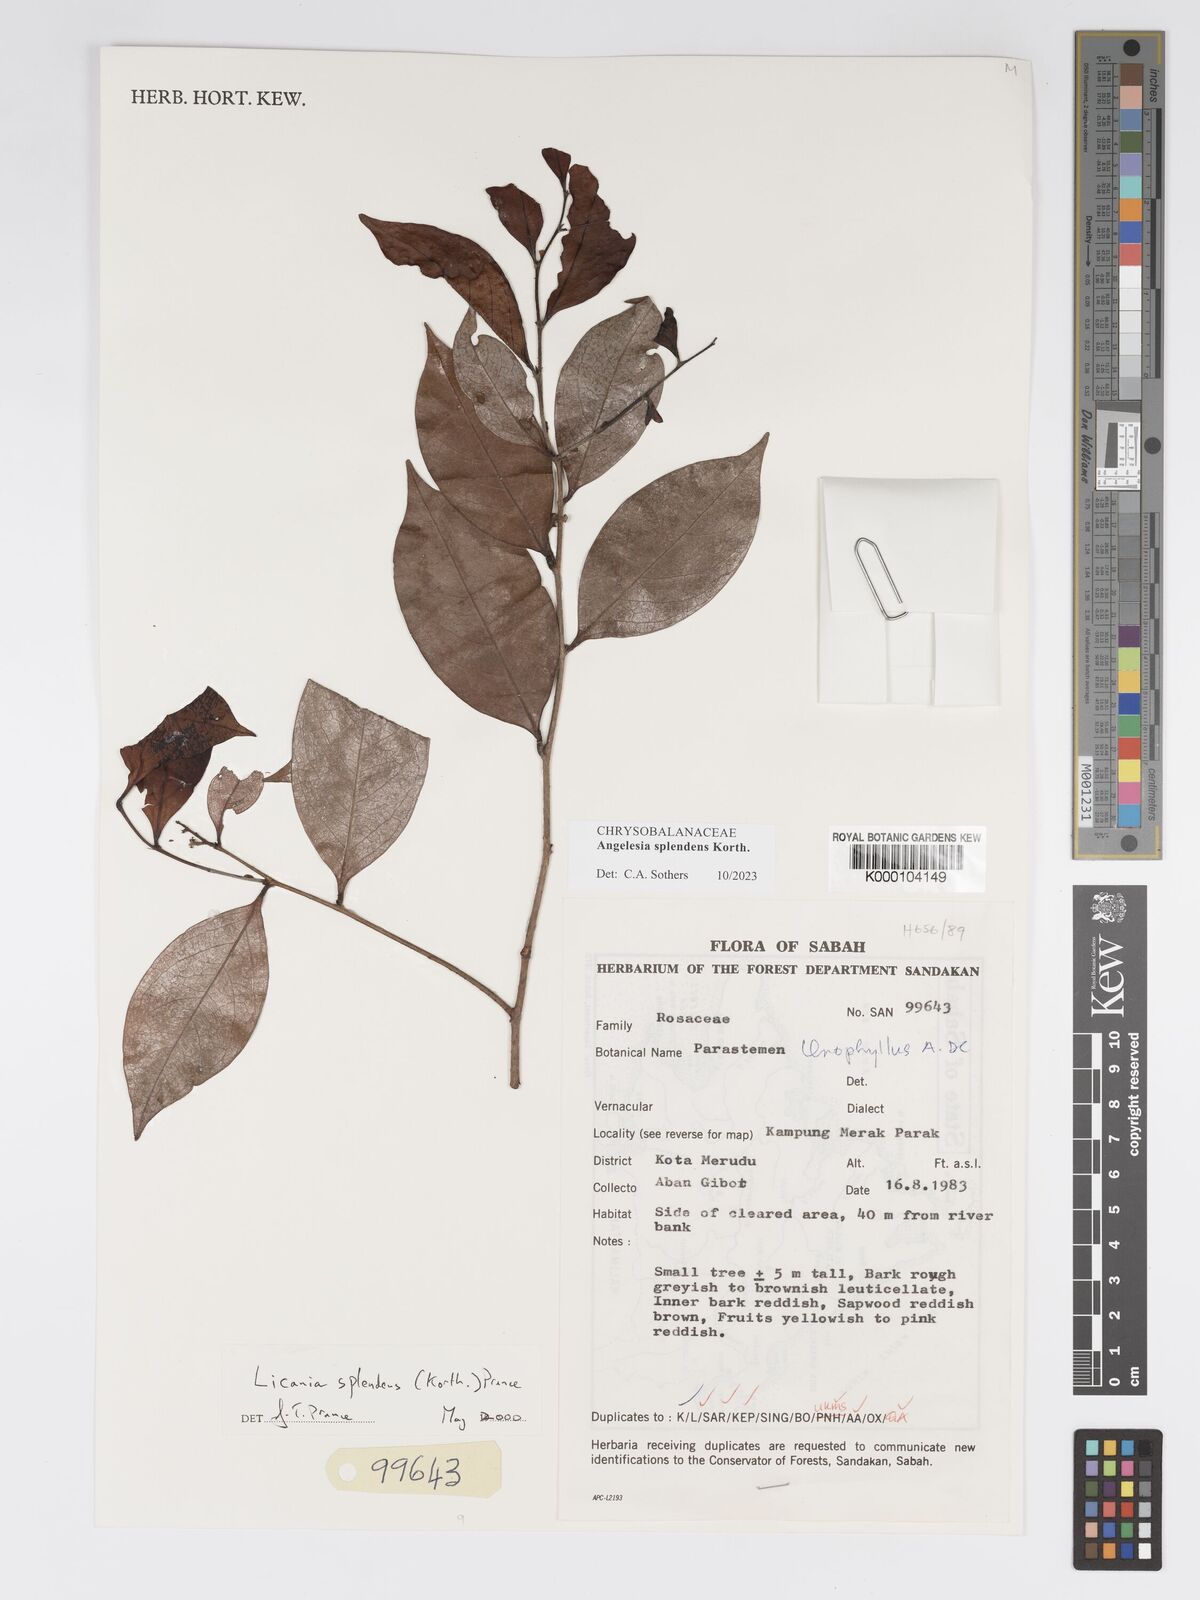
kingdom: Plantae
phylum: Tracheophyta
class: Magnoliopsida
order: Malpighiales
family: Chrysobalanaceae
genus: Angelesia
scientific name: Angelesia splendens
